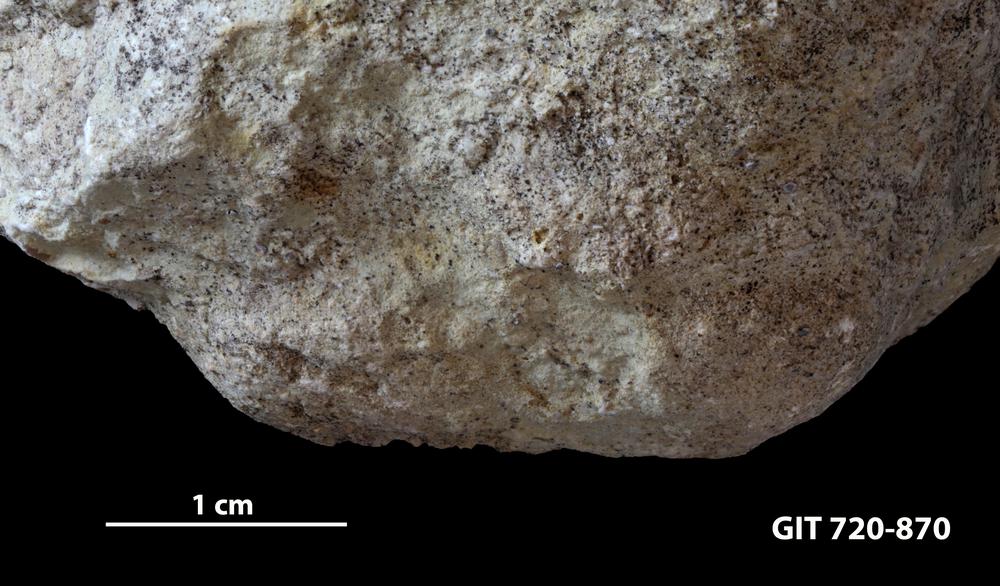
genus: Conichnus
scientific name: Conichnus
